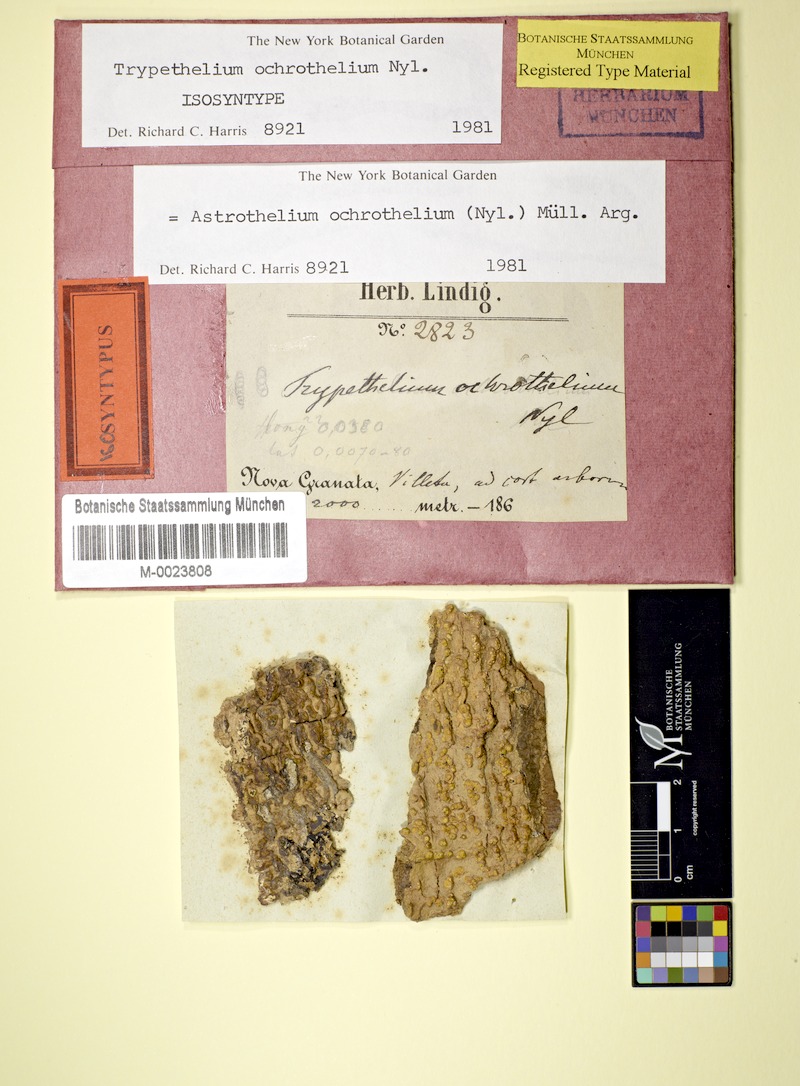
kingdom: Fungi
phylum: Ascomycota
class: Dothideomycetes
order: Trypetheliales
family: Trypetheliaceae
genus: Astrothelium
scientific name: Astrothelium ochrothelium
